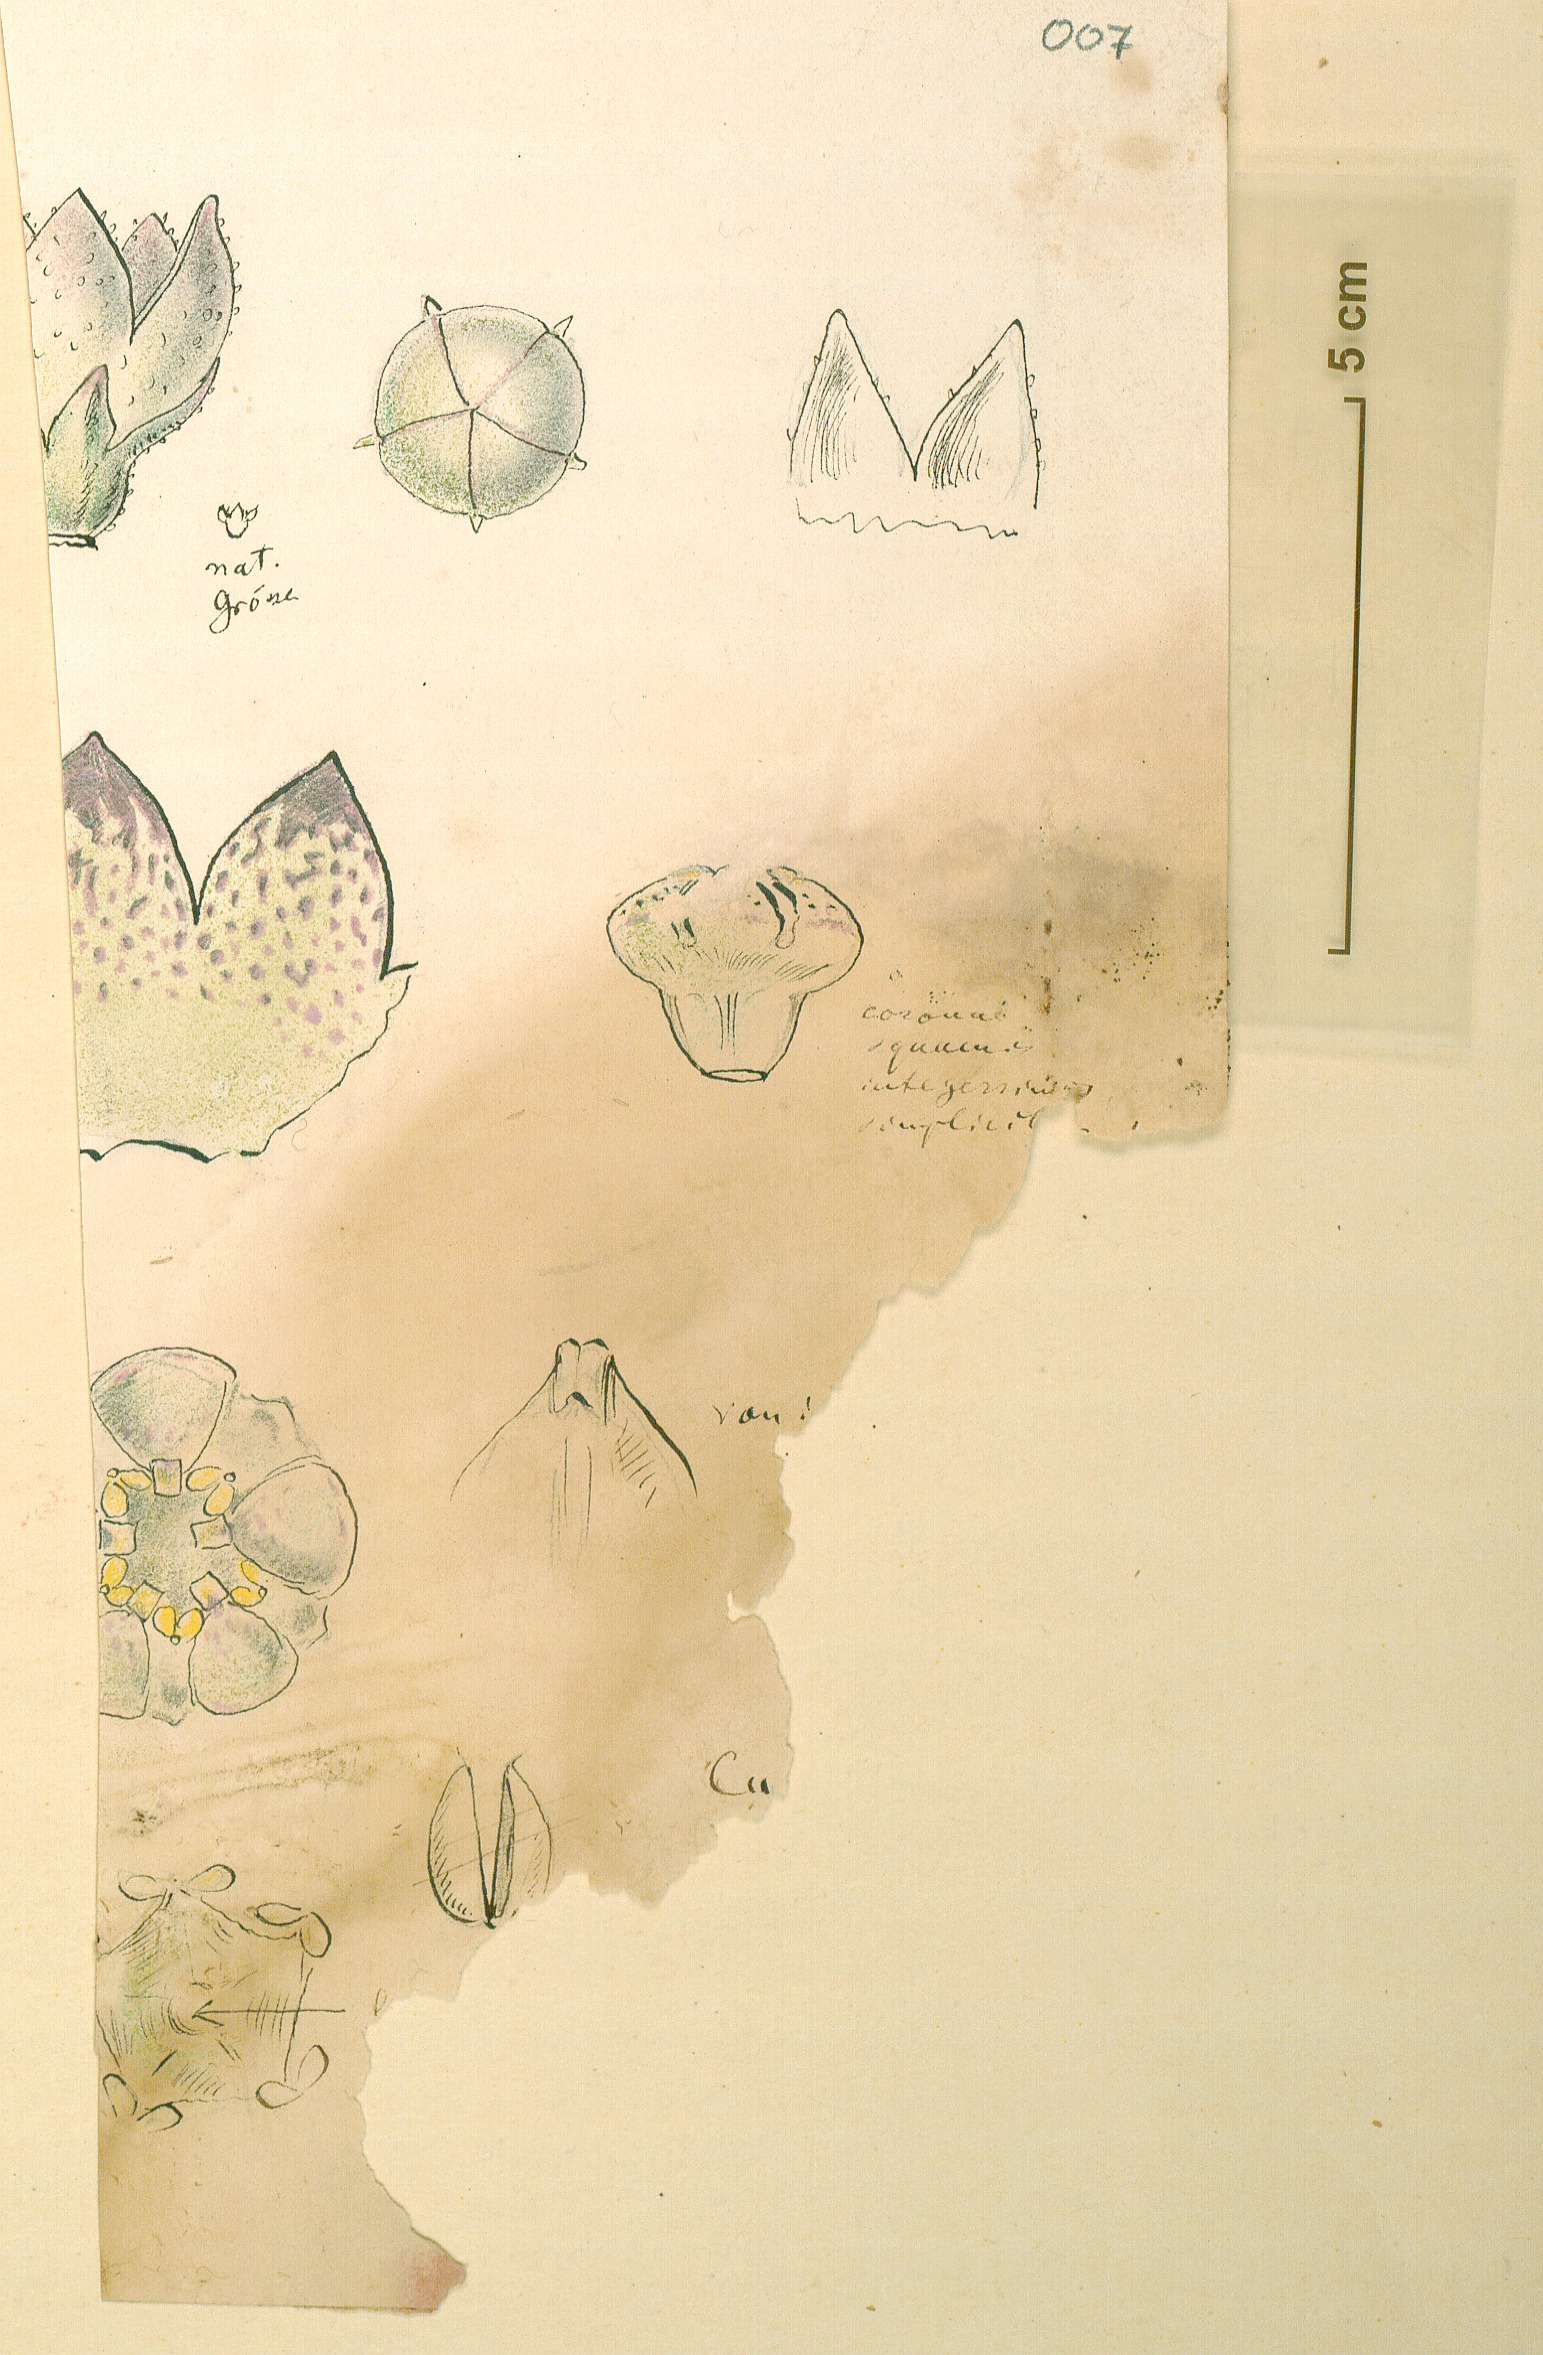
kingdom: Plantae
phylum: Tracheophyta
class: Magnoliopsida
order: Gentianales
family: Apocynaceae
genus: Ceropegia
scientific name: Ceropegia cereiformis
